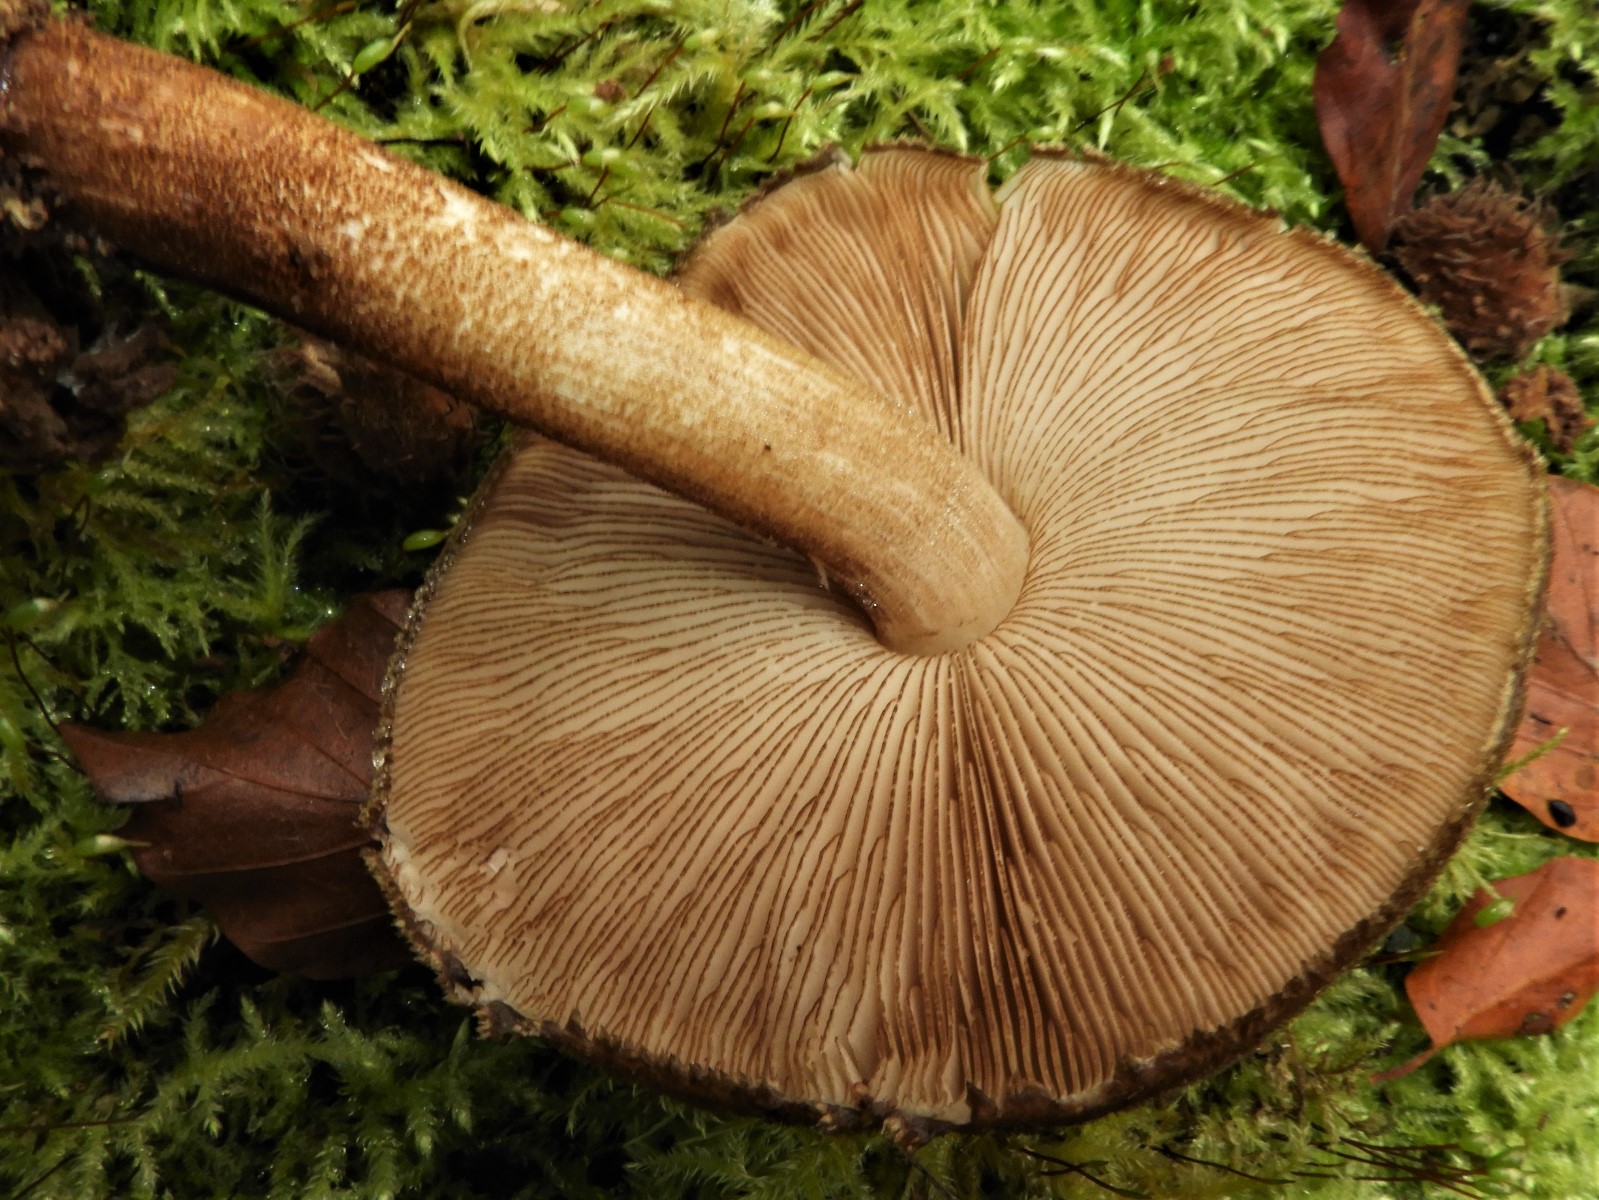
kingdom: Fungi
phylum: Basidiomycota
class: Agaricomycetes
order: Agaricales
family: Pluteaceae
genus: Pluteus
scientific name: Pluteus umbrosus
